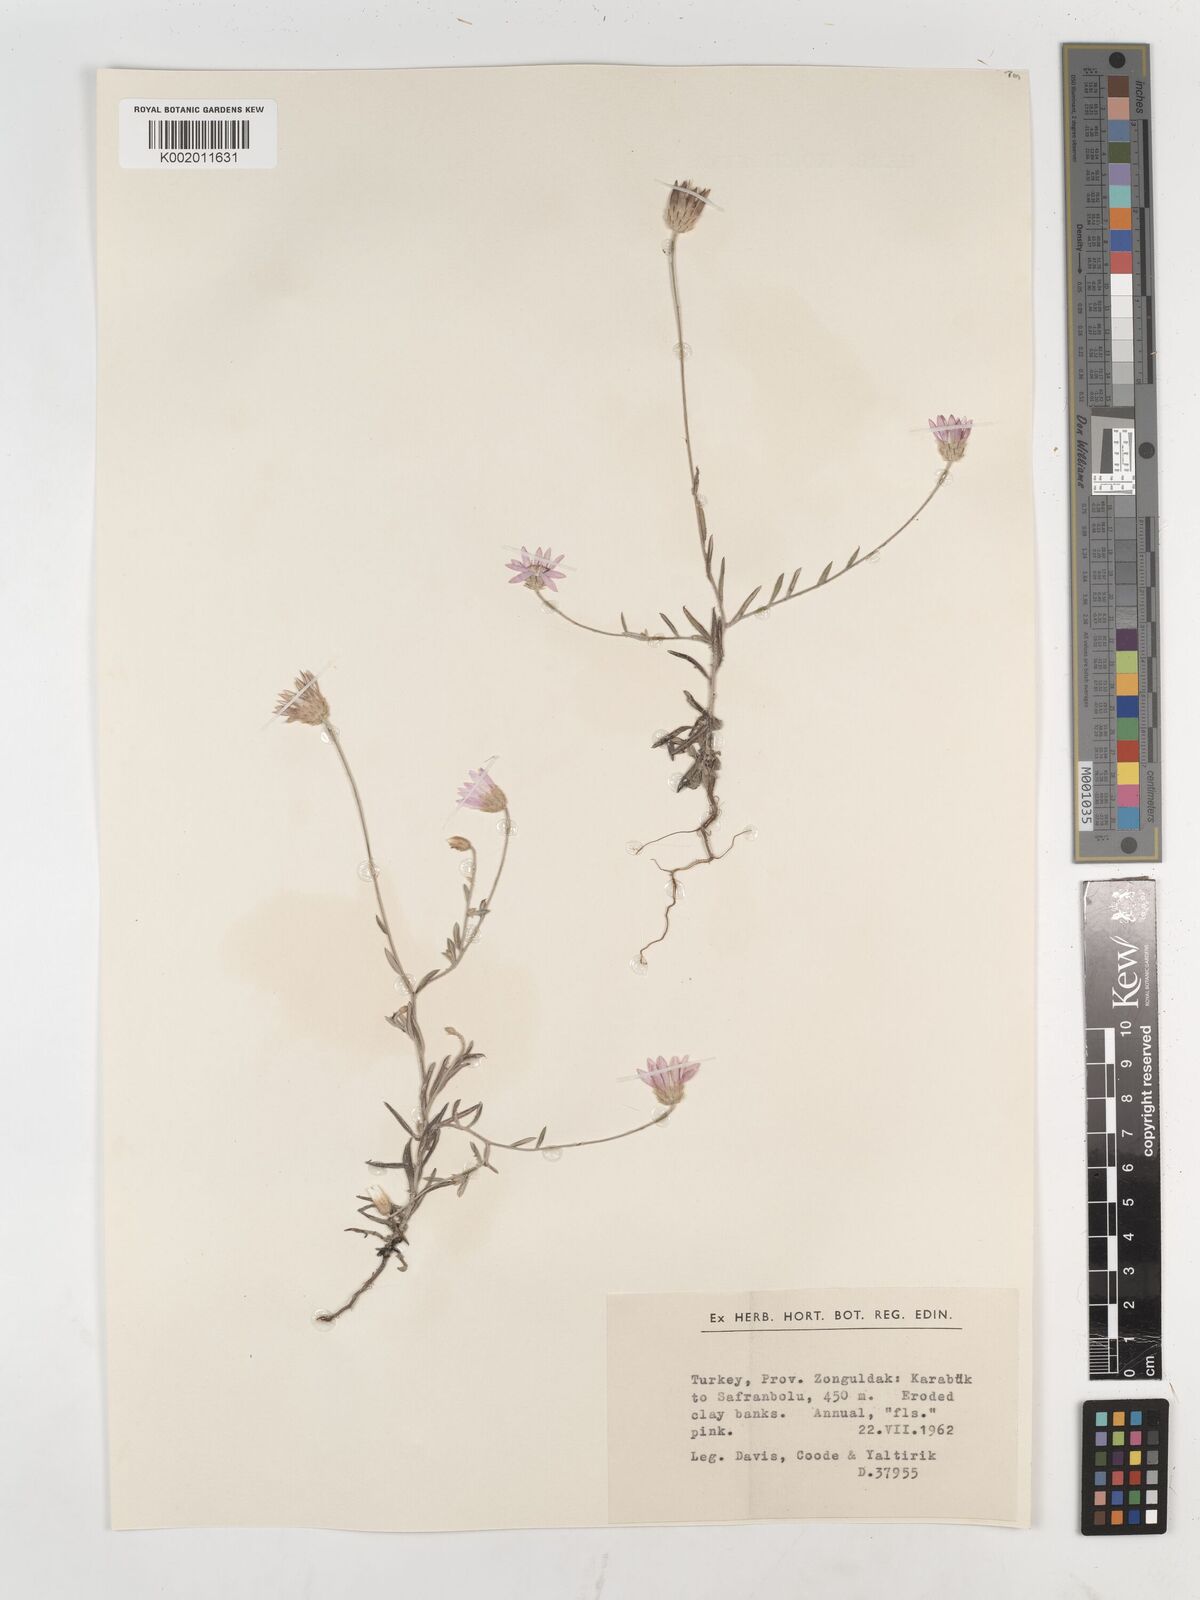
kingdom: Plantae
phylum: Tracheophyta
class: Magnoliopsida
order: Asterales
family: Asteraceae
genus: Xeranthemum
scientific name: Xeranthemum annuum
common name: Immortelle
